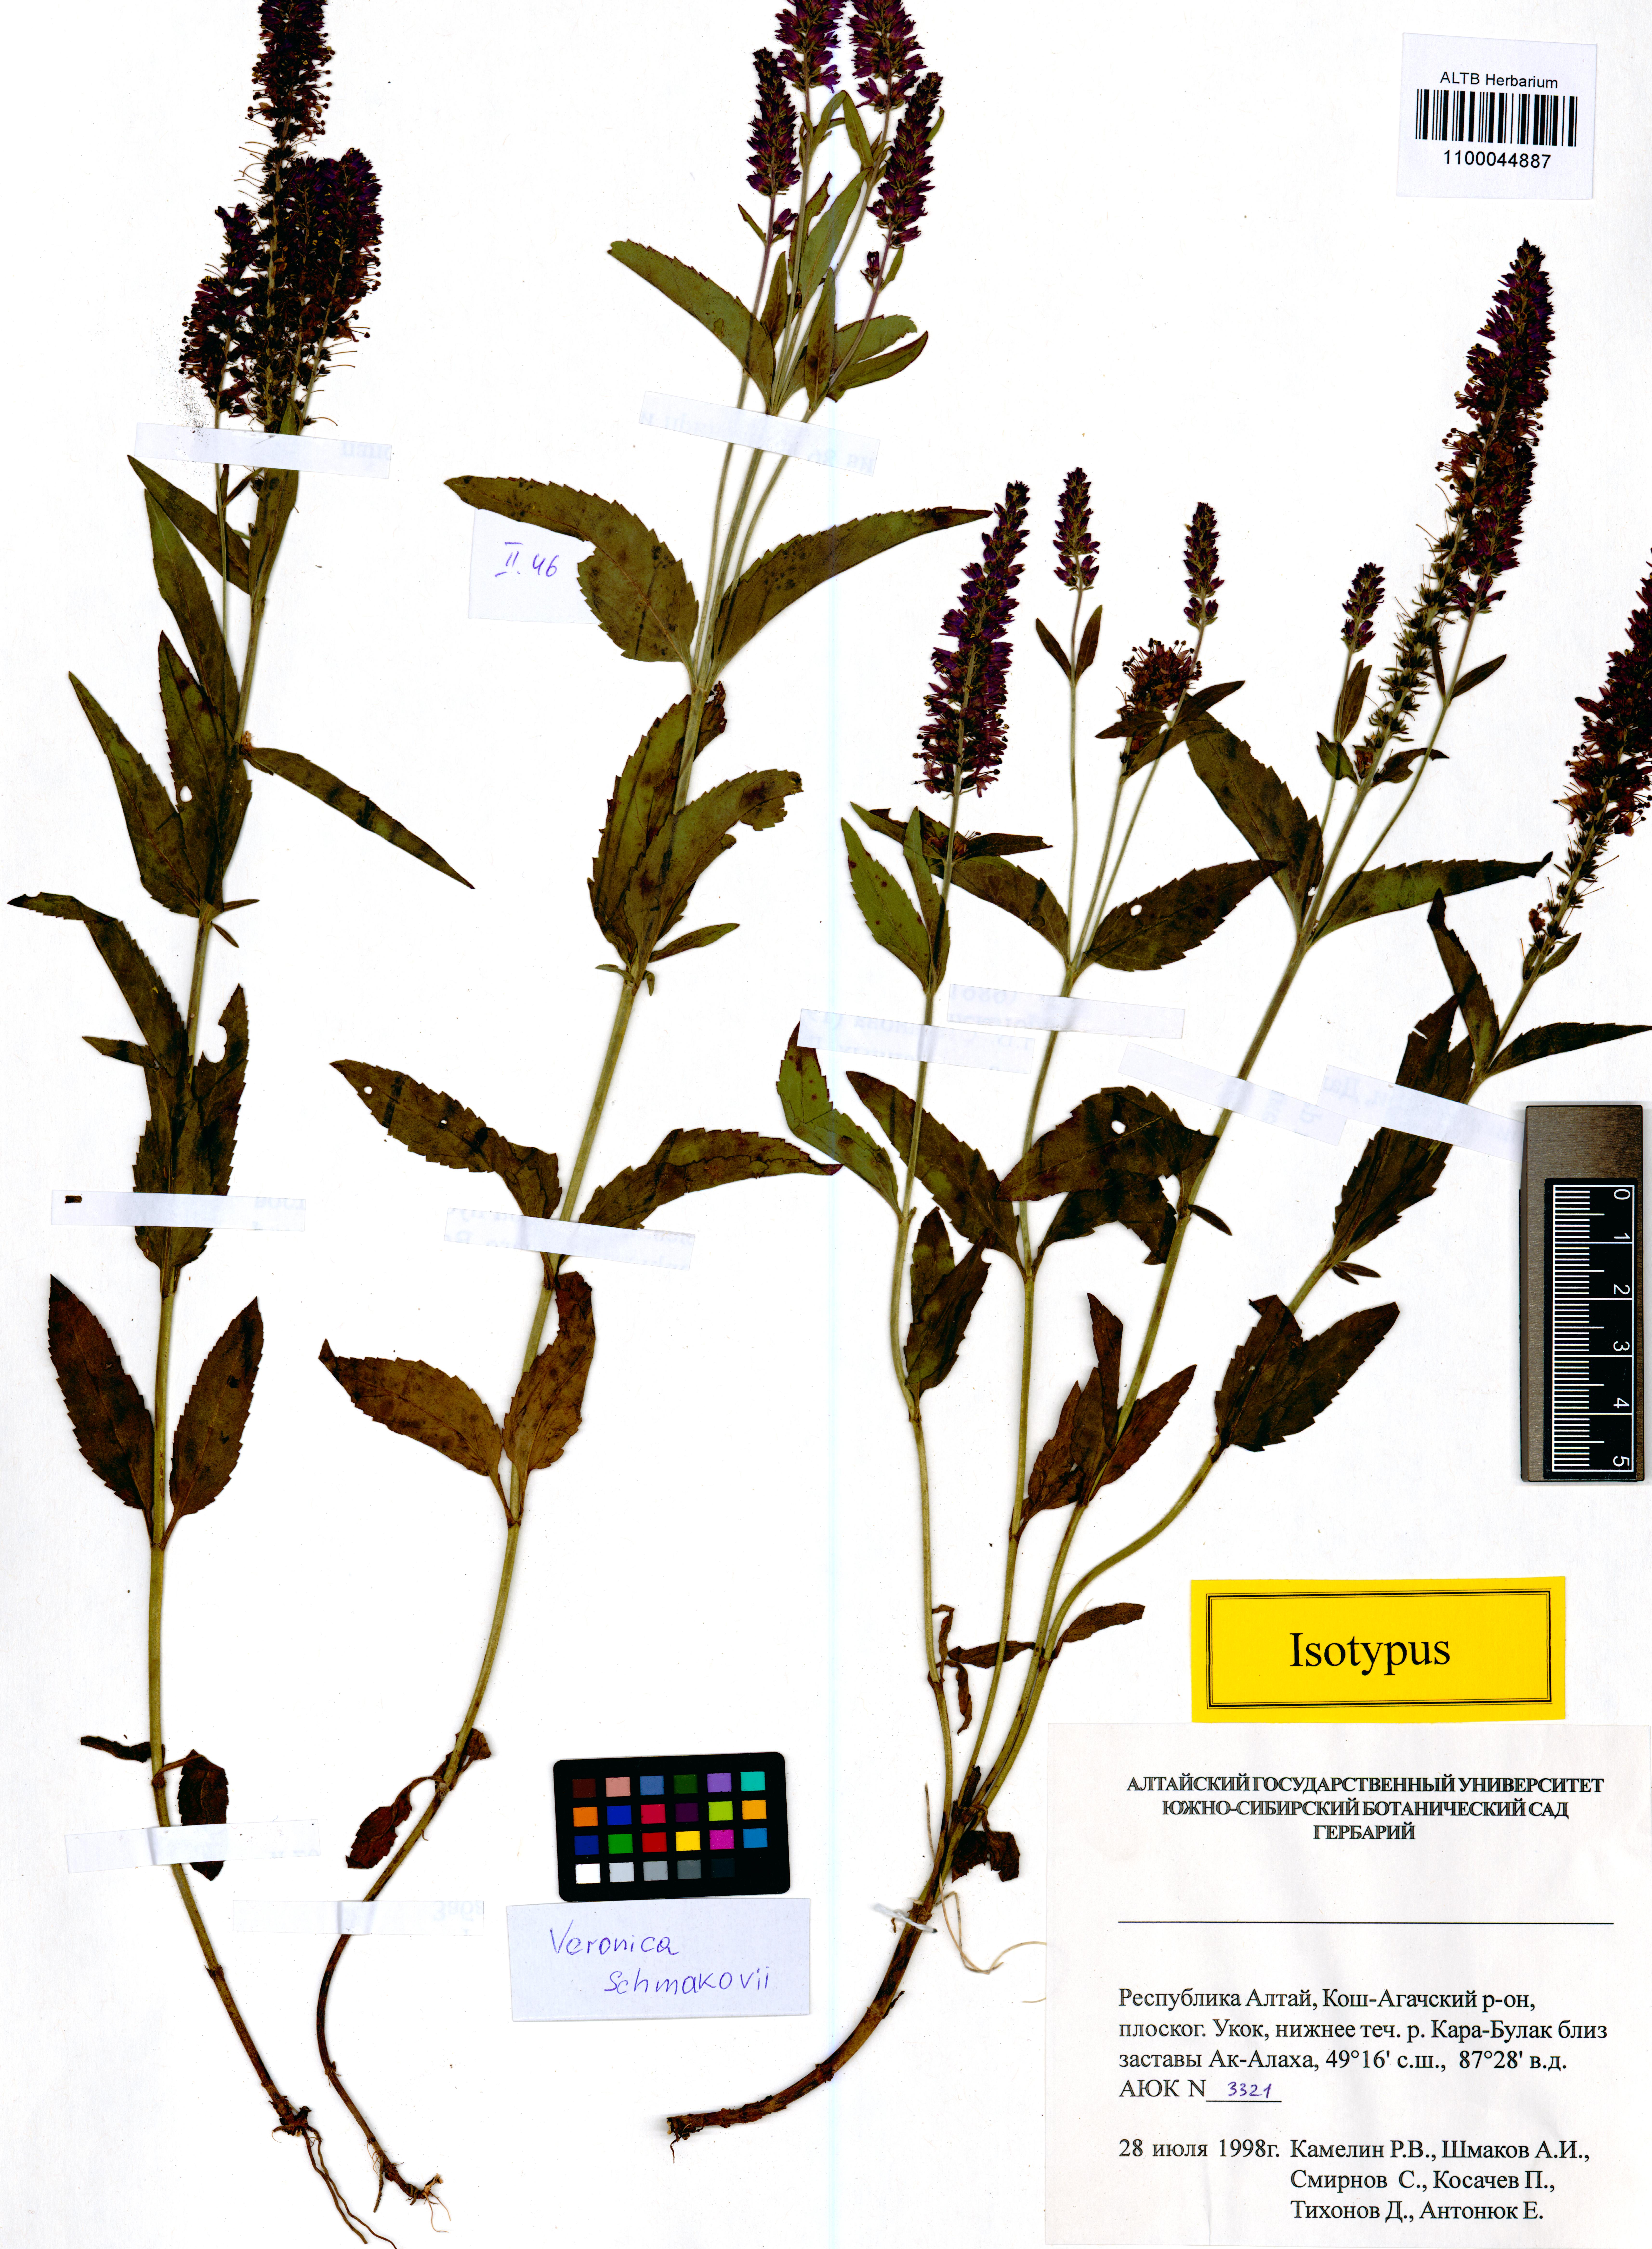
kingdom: Plantae
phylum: Tracheophyta
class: Magnoliopsida
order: Lamiales
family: Plantaginaceae
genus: Veronica
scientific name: Veronica schmakovii
